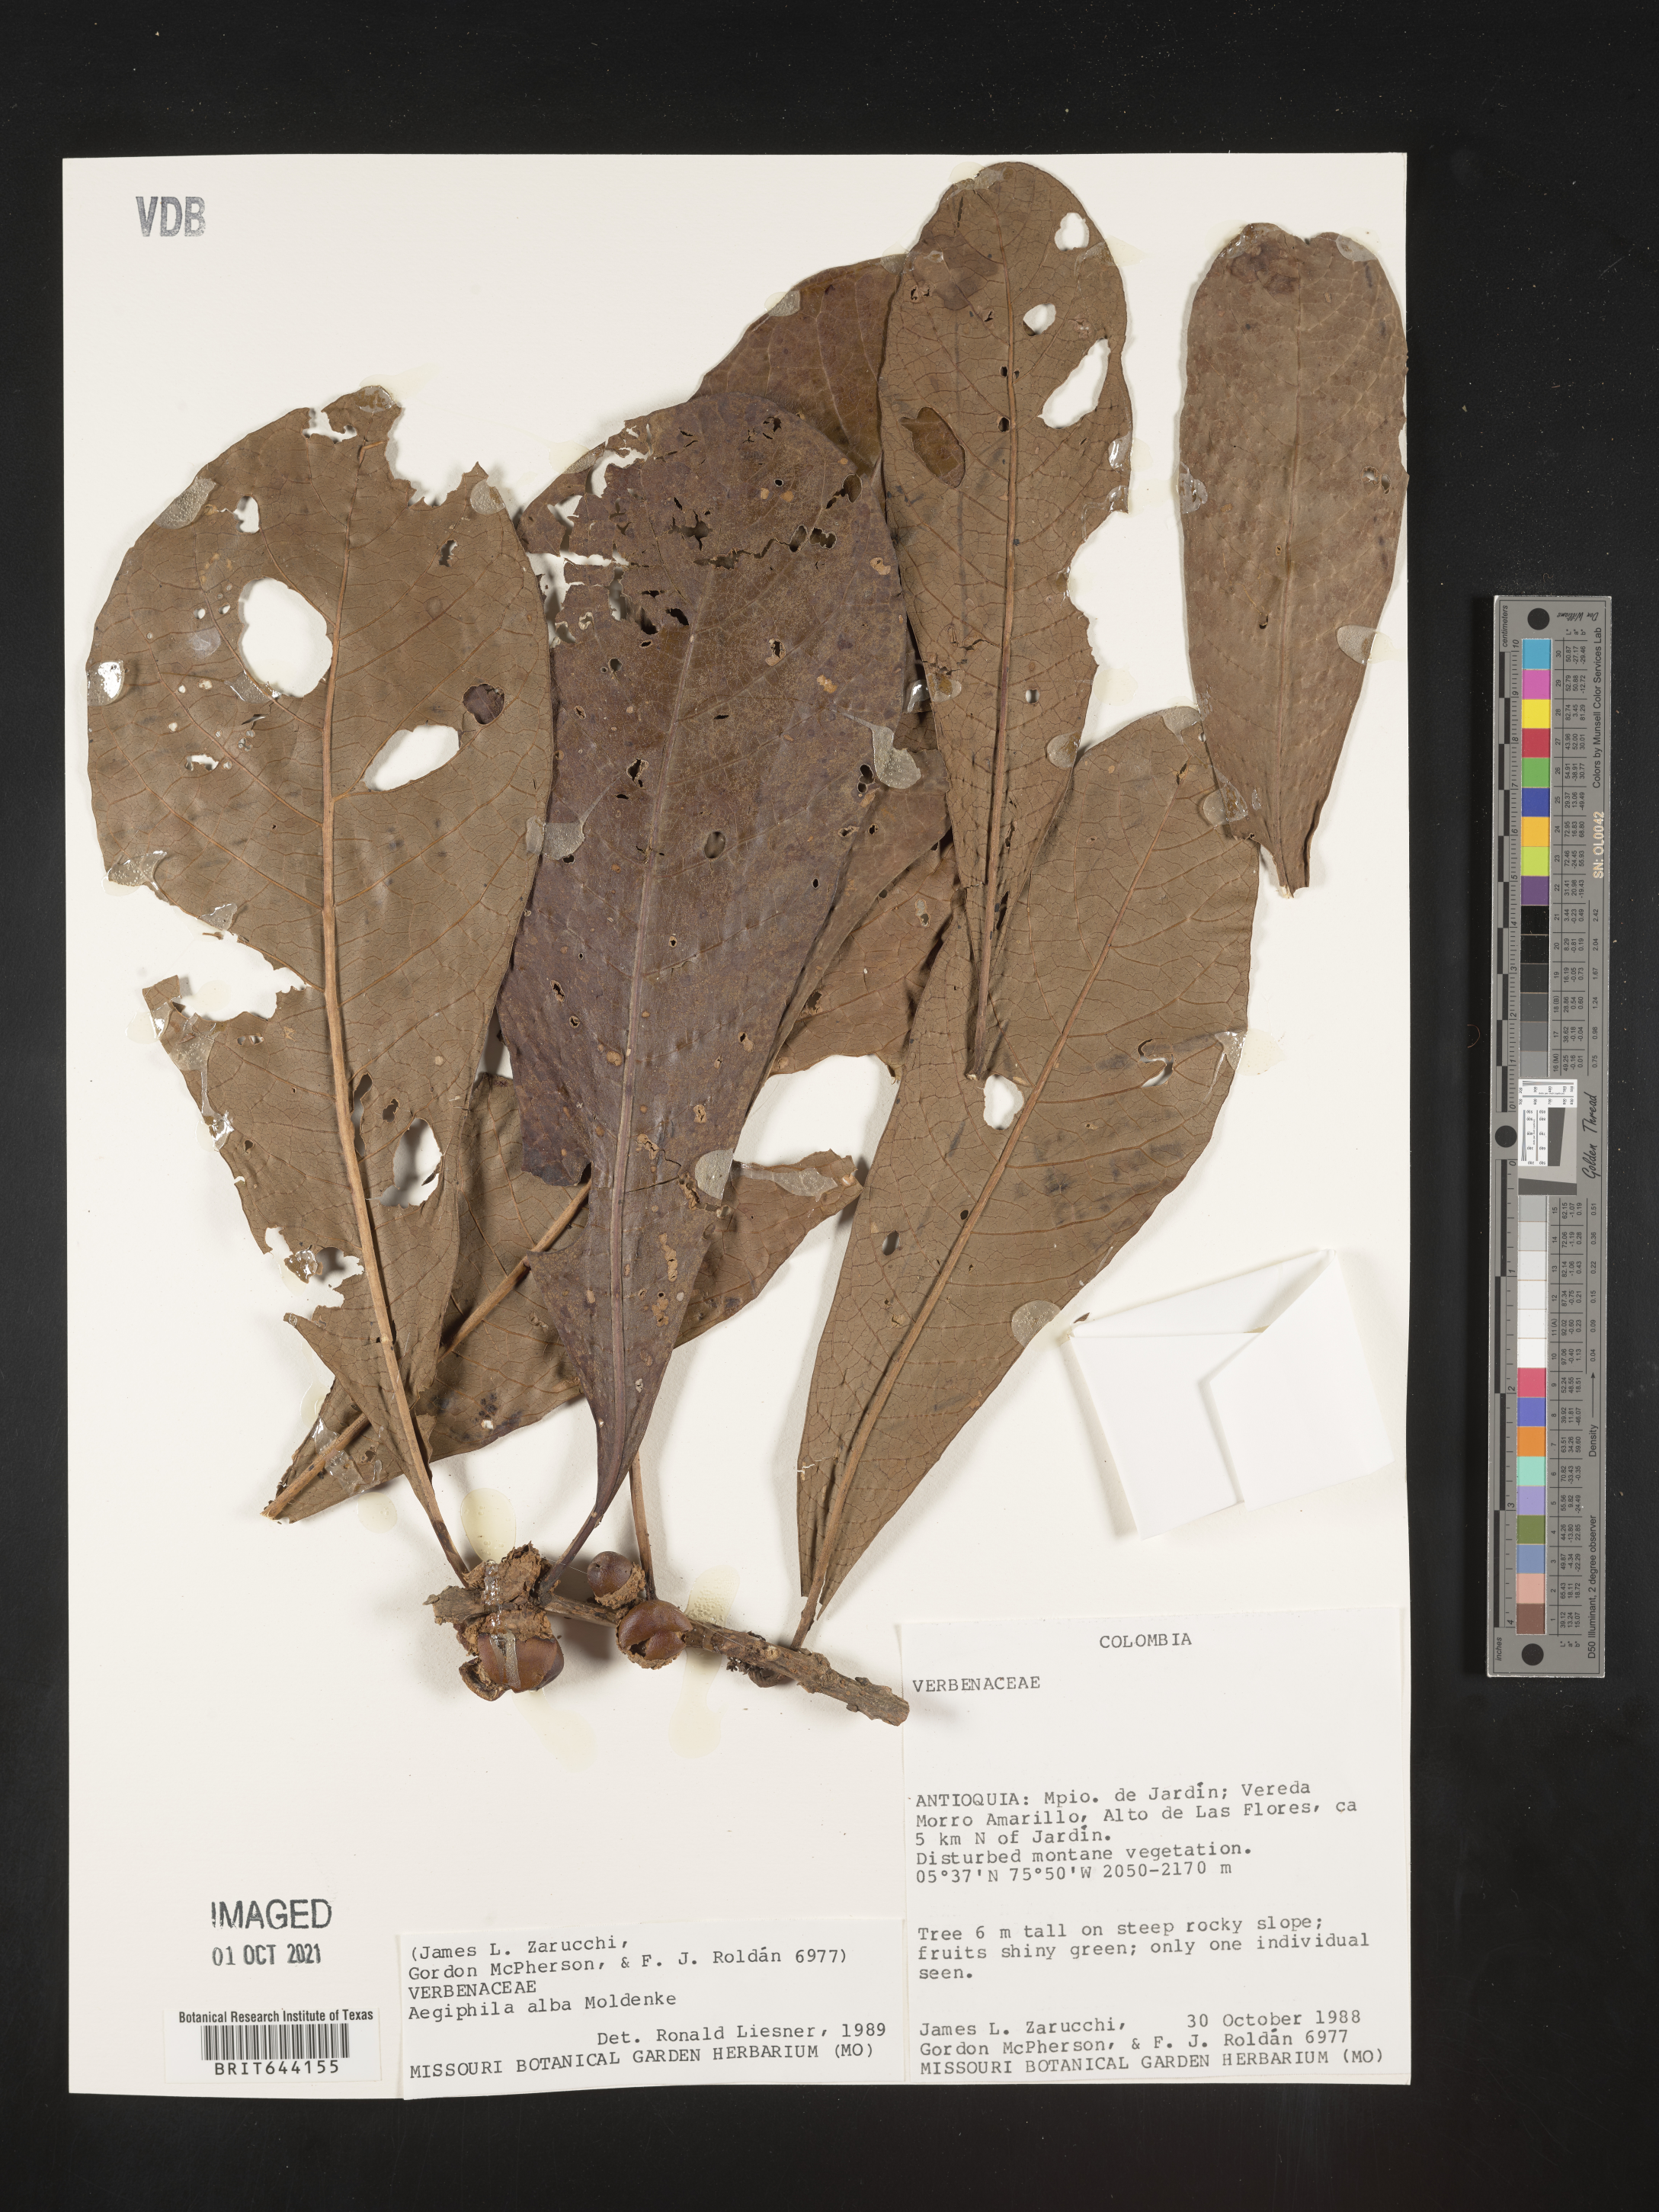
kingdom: Plantae
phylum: Tracheophyta
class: Magnoliopsida
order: Lamiales
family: Lamiaceae
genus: Aegiphila
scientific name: Aegiphila
